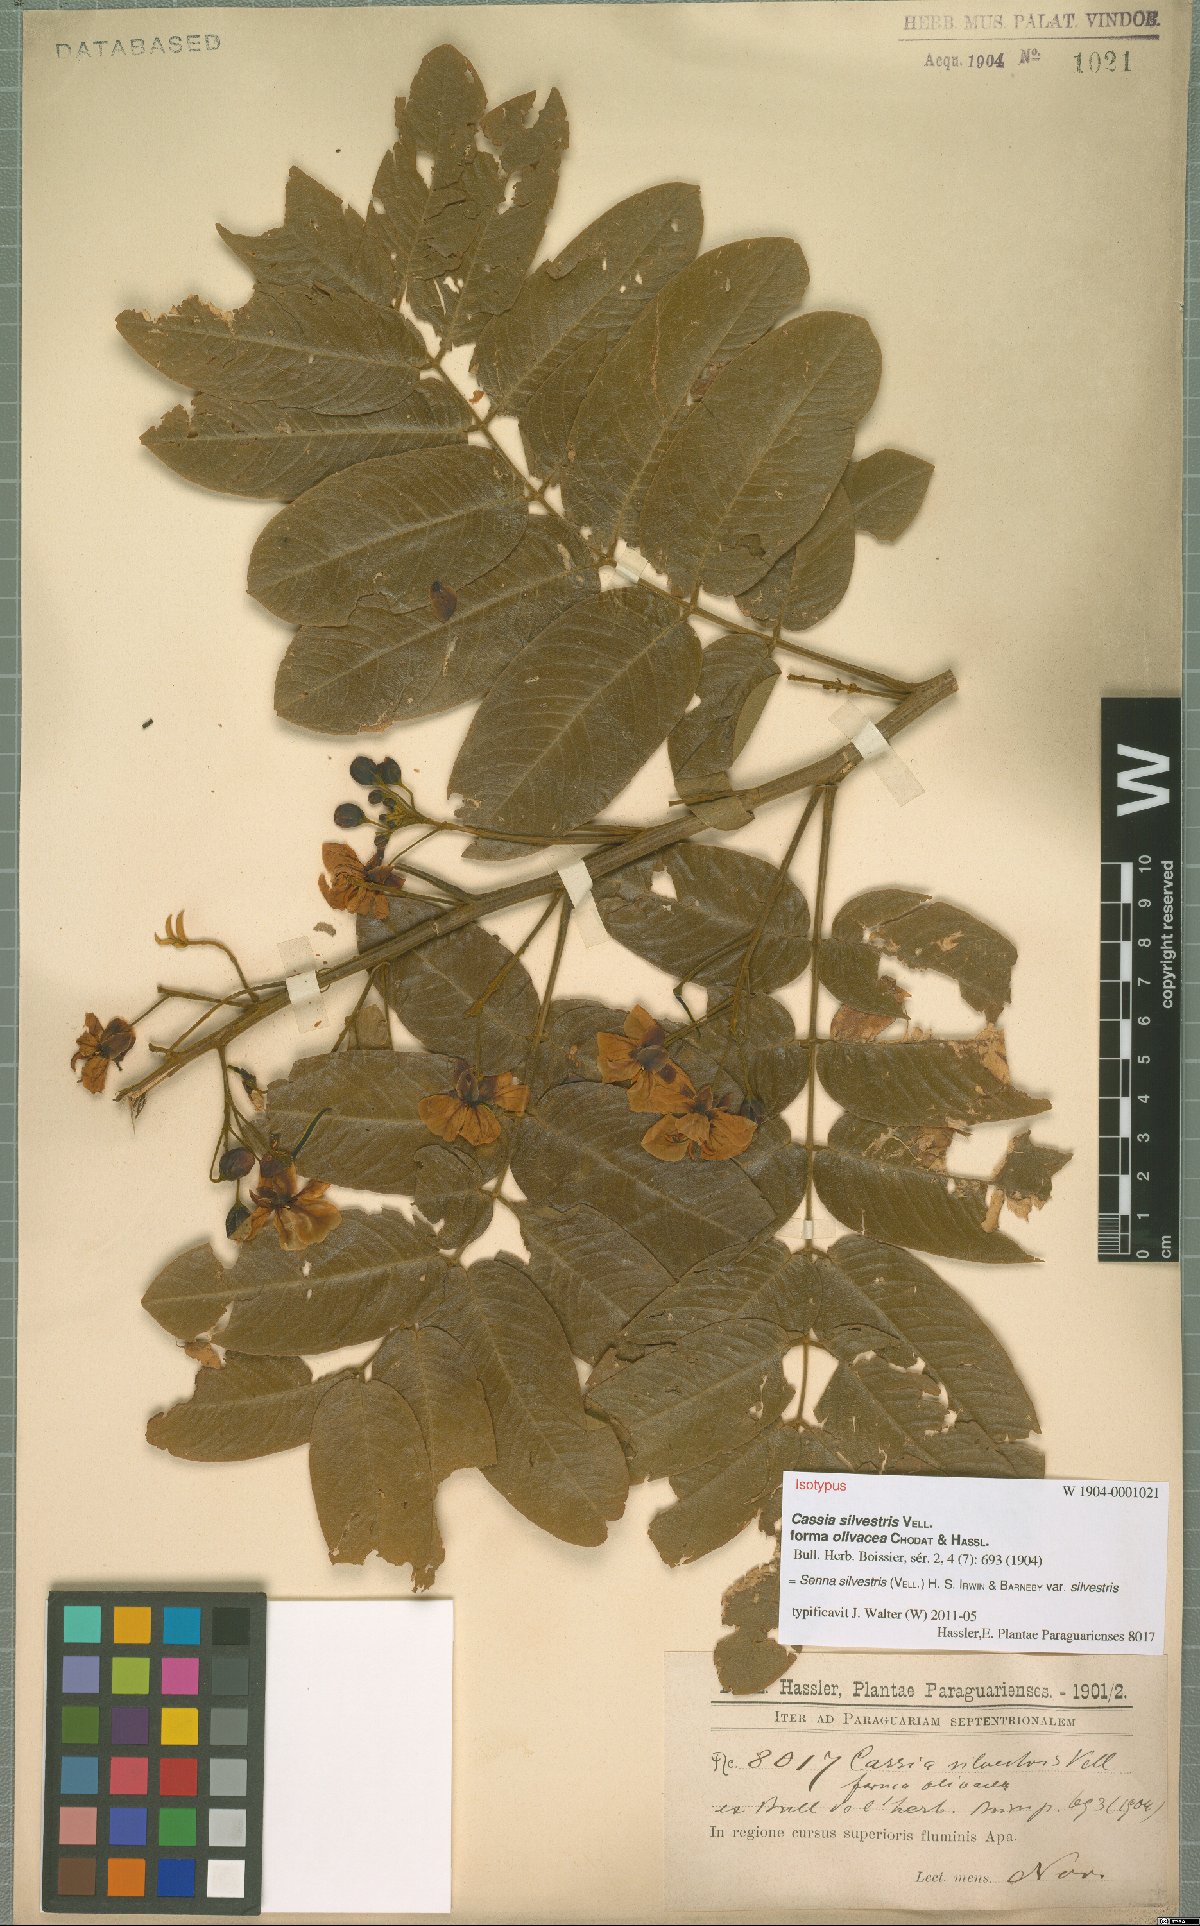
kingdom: Plantae
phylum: Tracheophyta
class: Magnoliopsida
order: Fabales
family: Fabaceae
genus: Senna
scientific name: Senna silvestris
